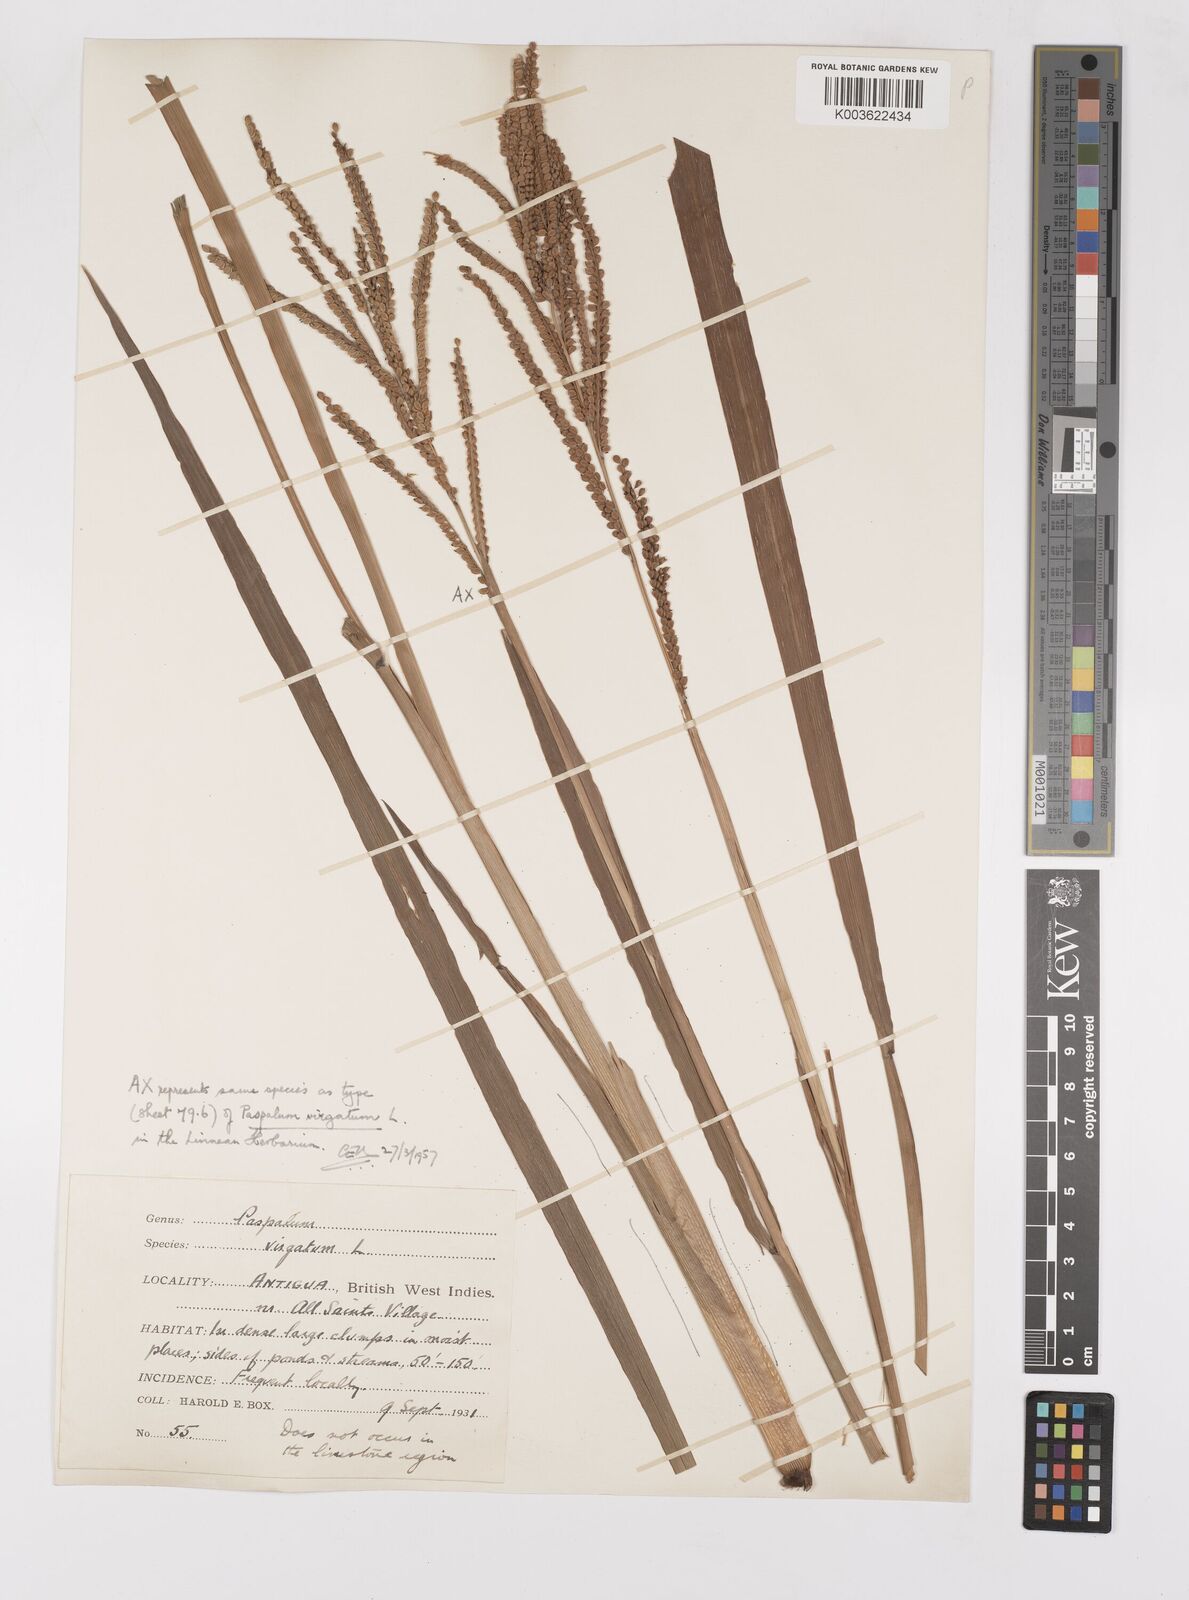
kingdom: Plantae
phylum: Tracheophyta
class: Liliopsida
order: Poales
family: Poaceae
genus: Paspalum
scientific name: Paspalum virgatum
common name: Talquezal
